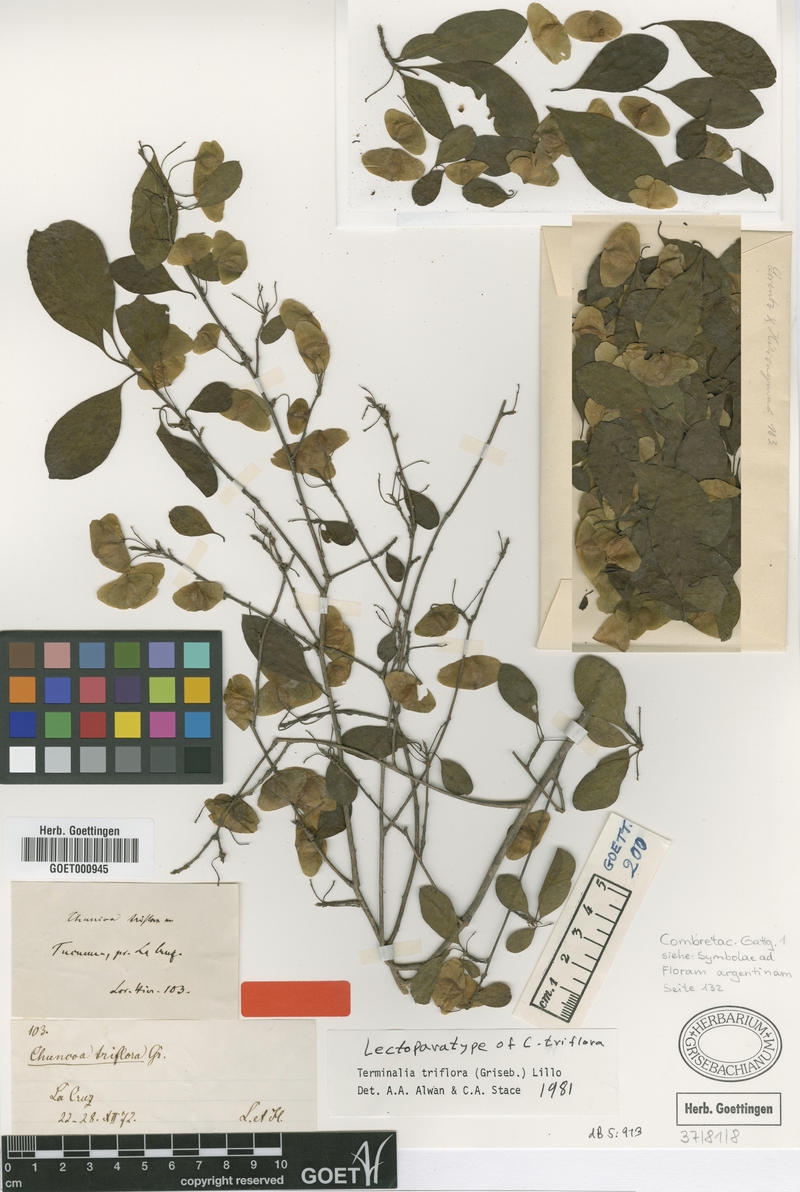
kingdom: Plantae
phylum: Tracheophyta
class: Magnoliopsida
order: Myrtales
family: Combretaceae
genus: Terminalia
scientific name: Terminalia triflora
